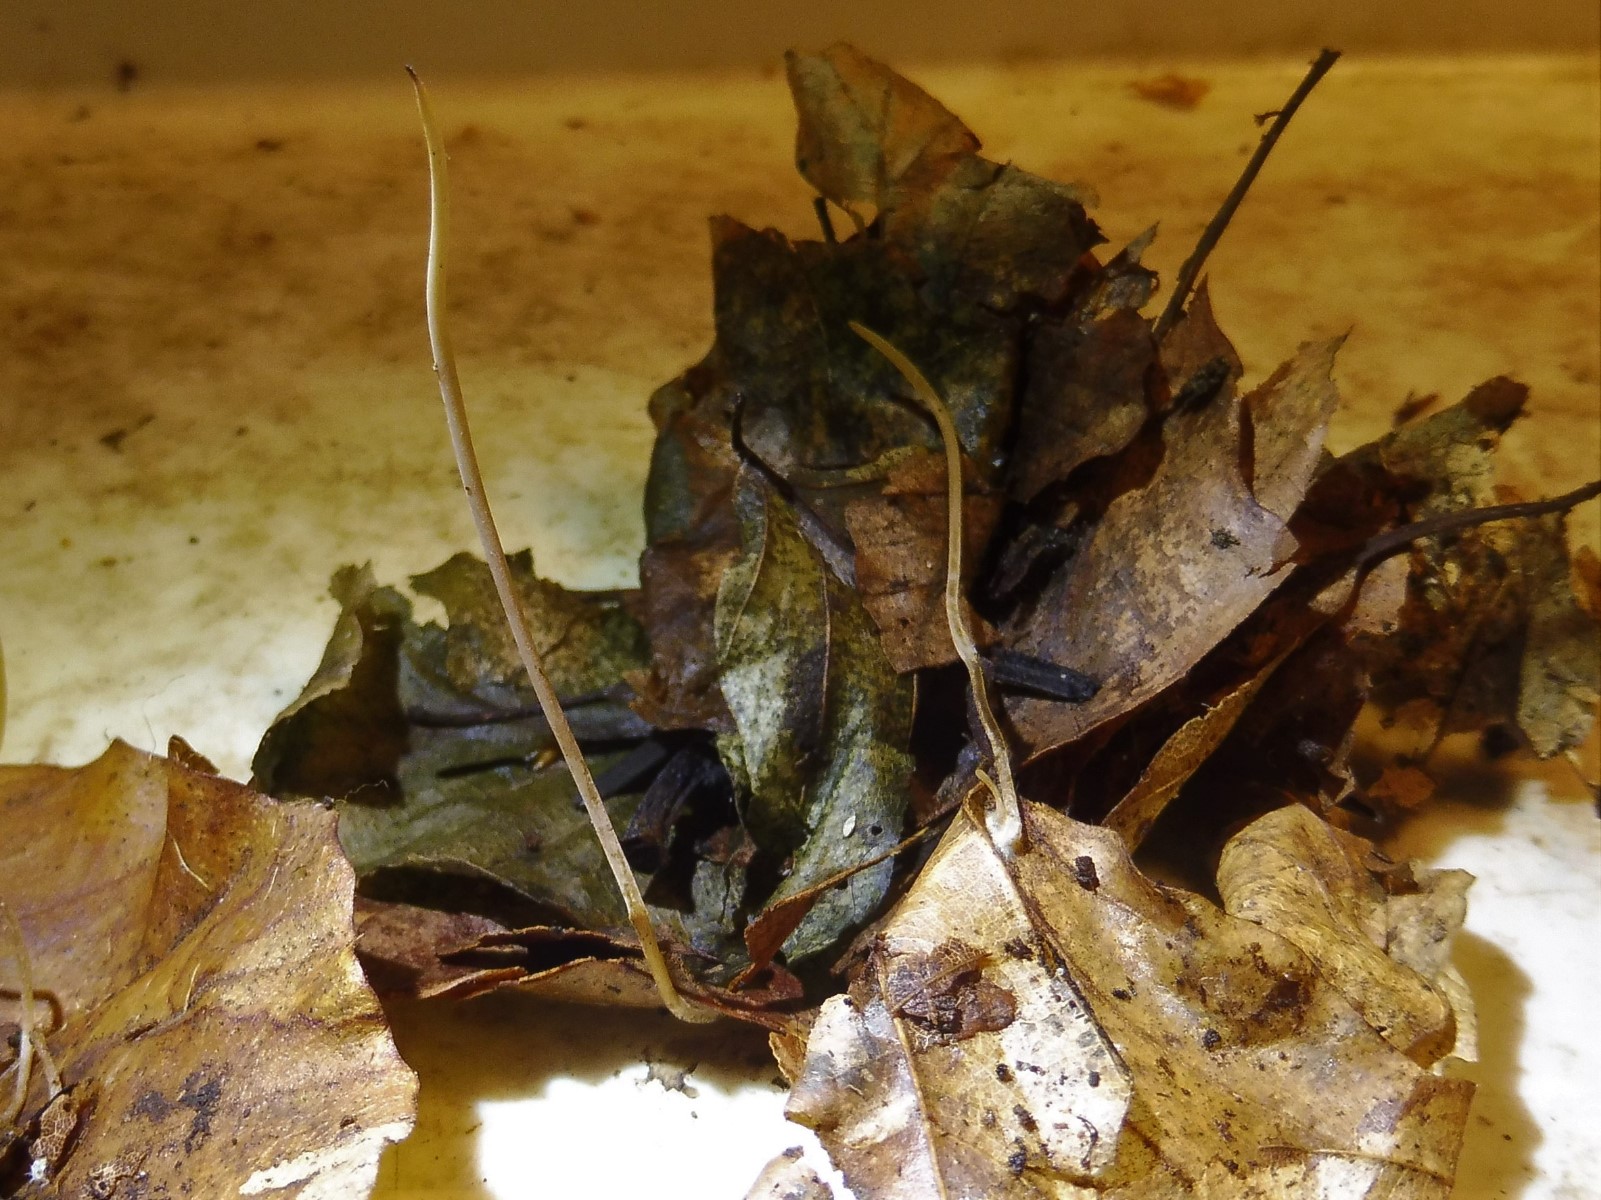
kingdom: Fungi
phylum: Basidiomycota
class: Agaricomycetes
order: Agaricales
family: Typhulaceae
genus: Typhula
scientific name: Typhula juncea
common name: trådagtig rørkølle
